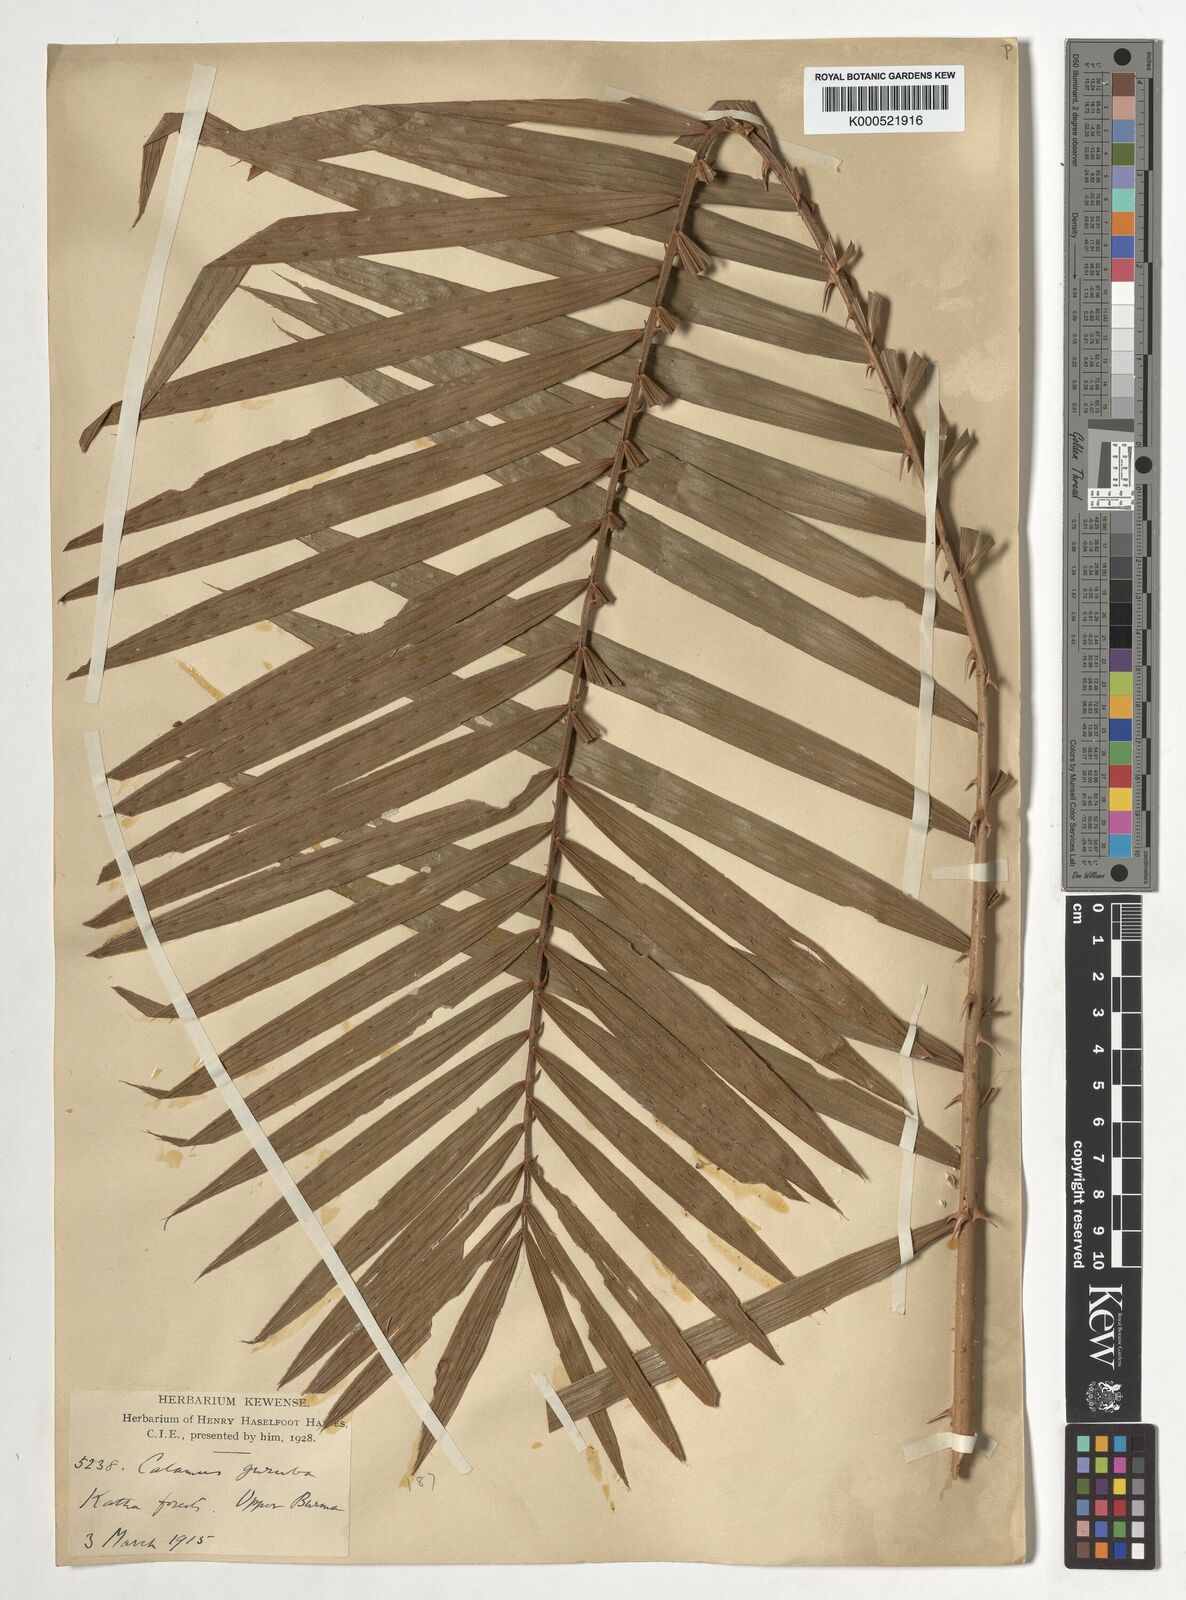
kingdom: Plantae
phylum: Tracheophyta
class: Liliopsida
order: Arecales
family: Arecaceae
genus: Calamus
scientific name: Calamus
